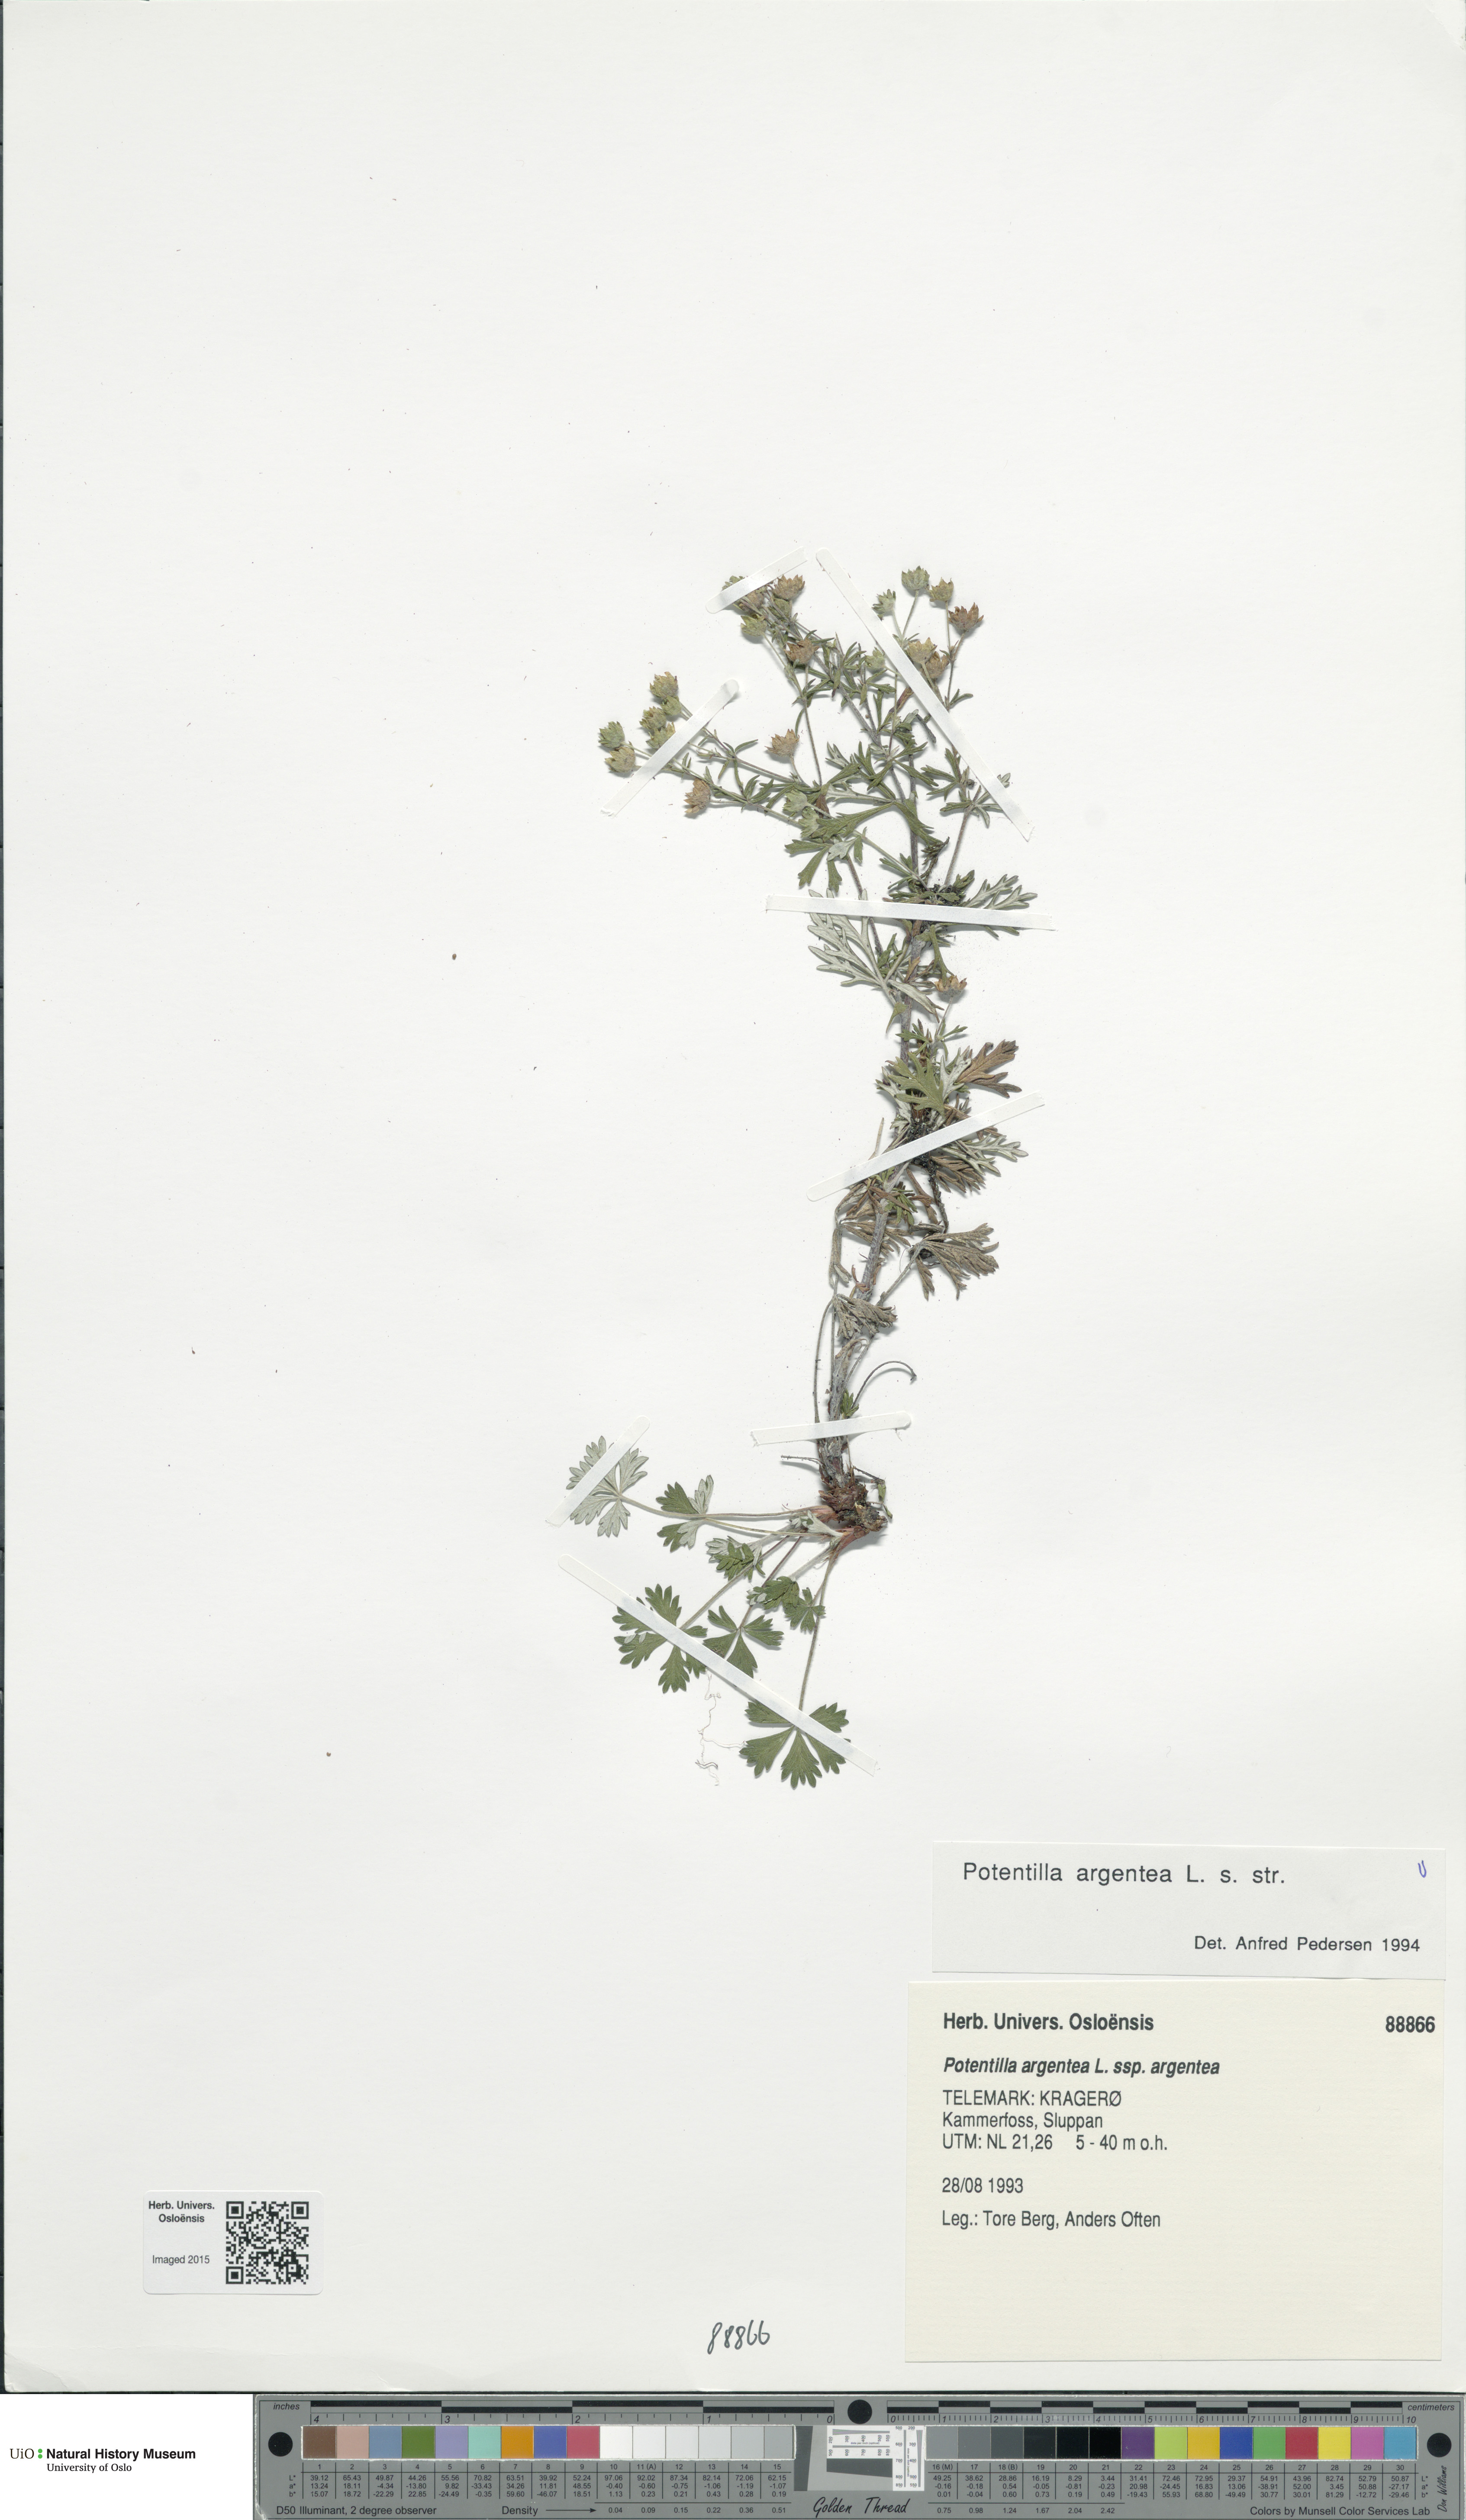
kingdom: Plantae
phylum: Tracheophyta
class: Magnoliopsida
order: Rosales
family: Rosaceae
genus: Potentilla
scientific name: Potentilla argentea
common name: Hoary cinquefoil
